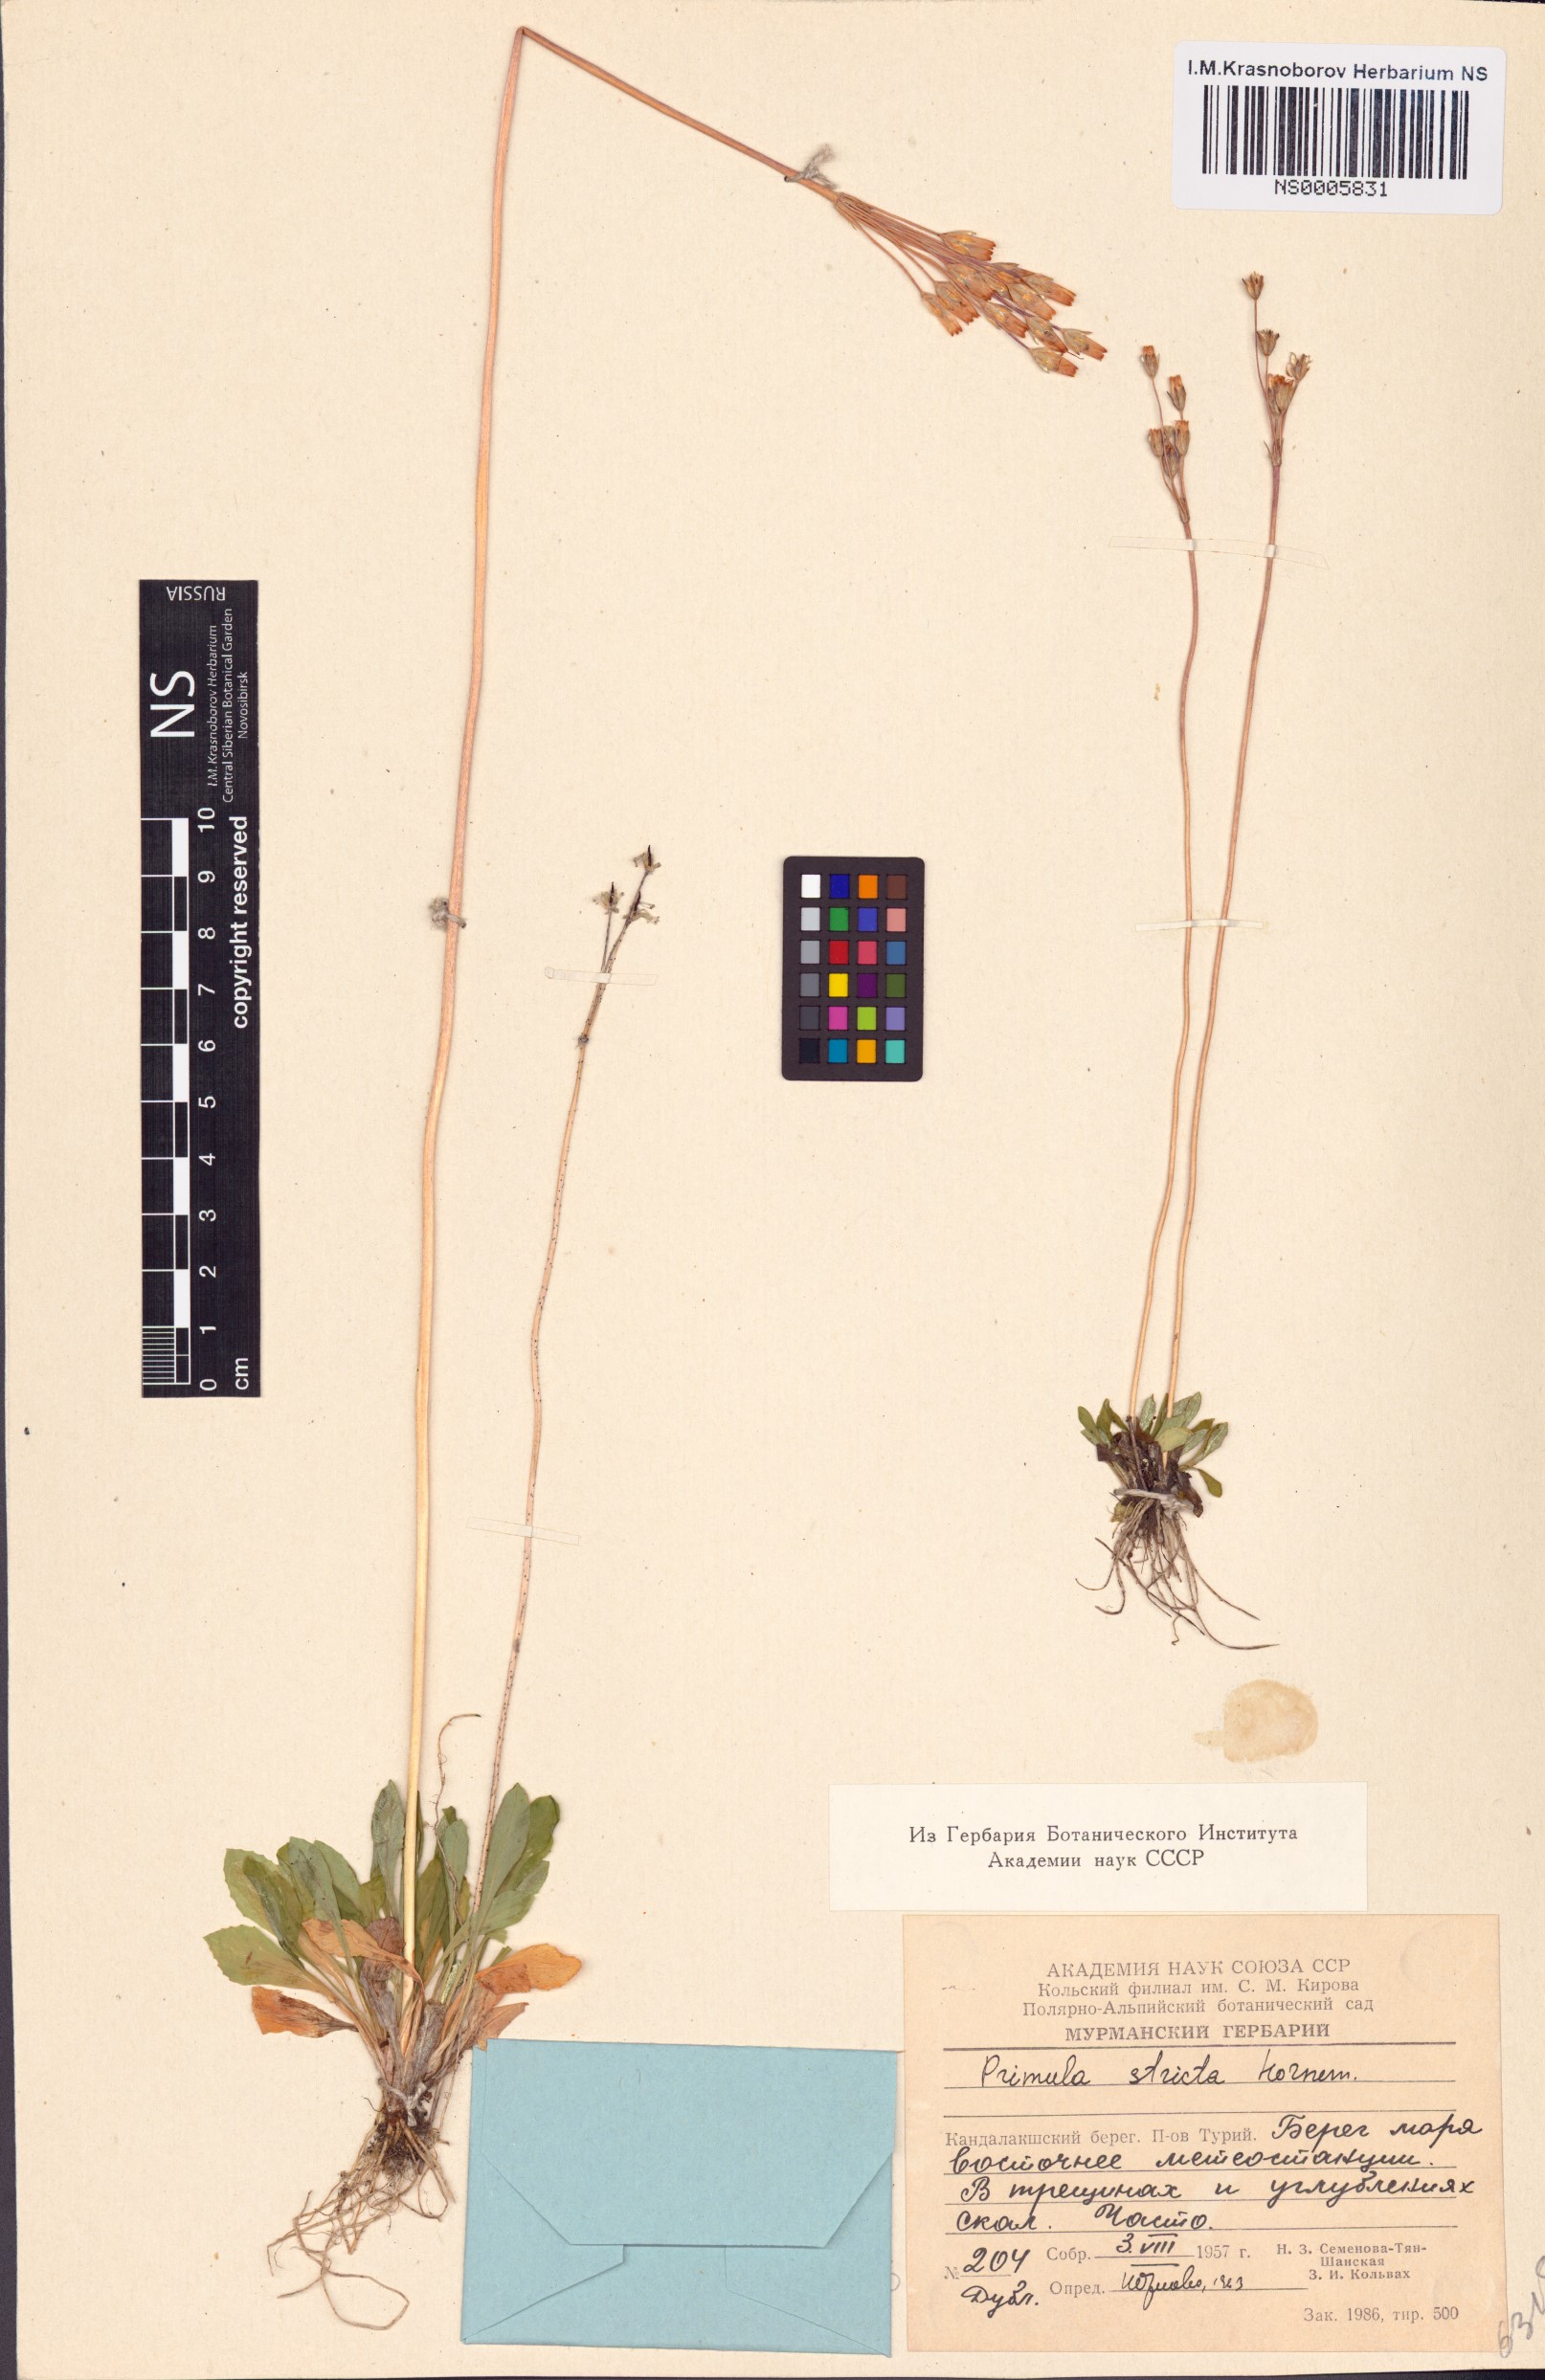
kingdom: Plantae
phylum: Tracheophyta
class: Magnoliopsida
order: Ericales
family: Primulaceae
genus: Primula
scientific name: Primula stricta
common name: Coastal primrose
